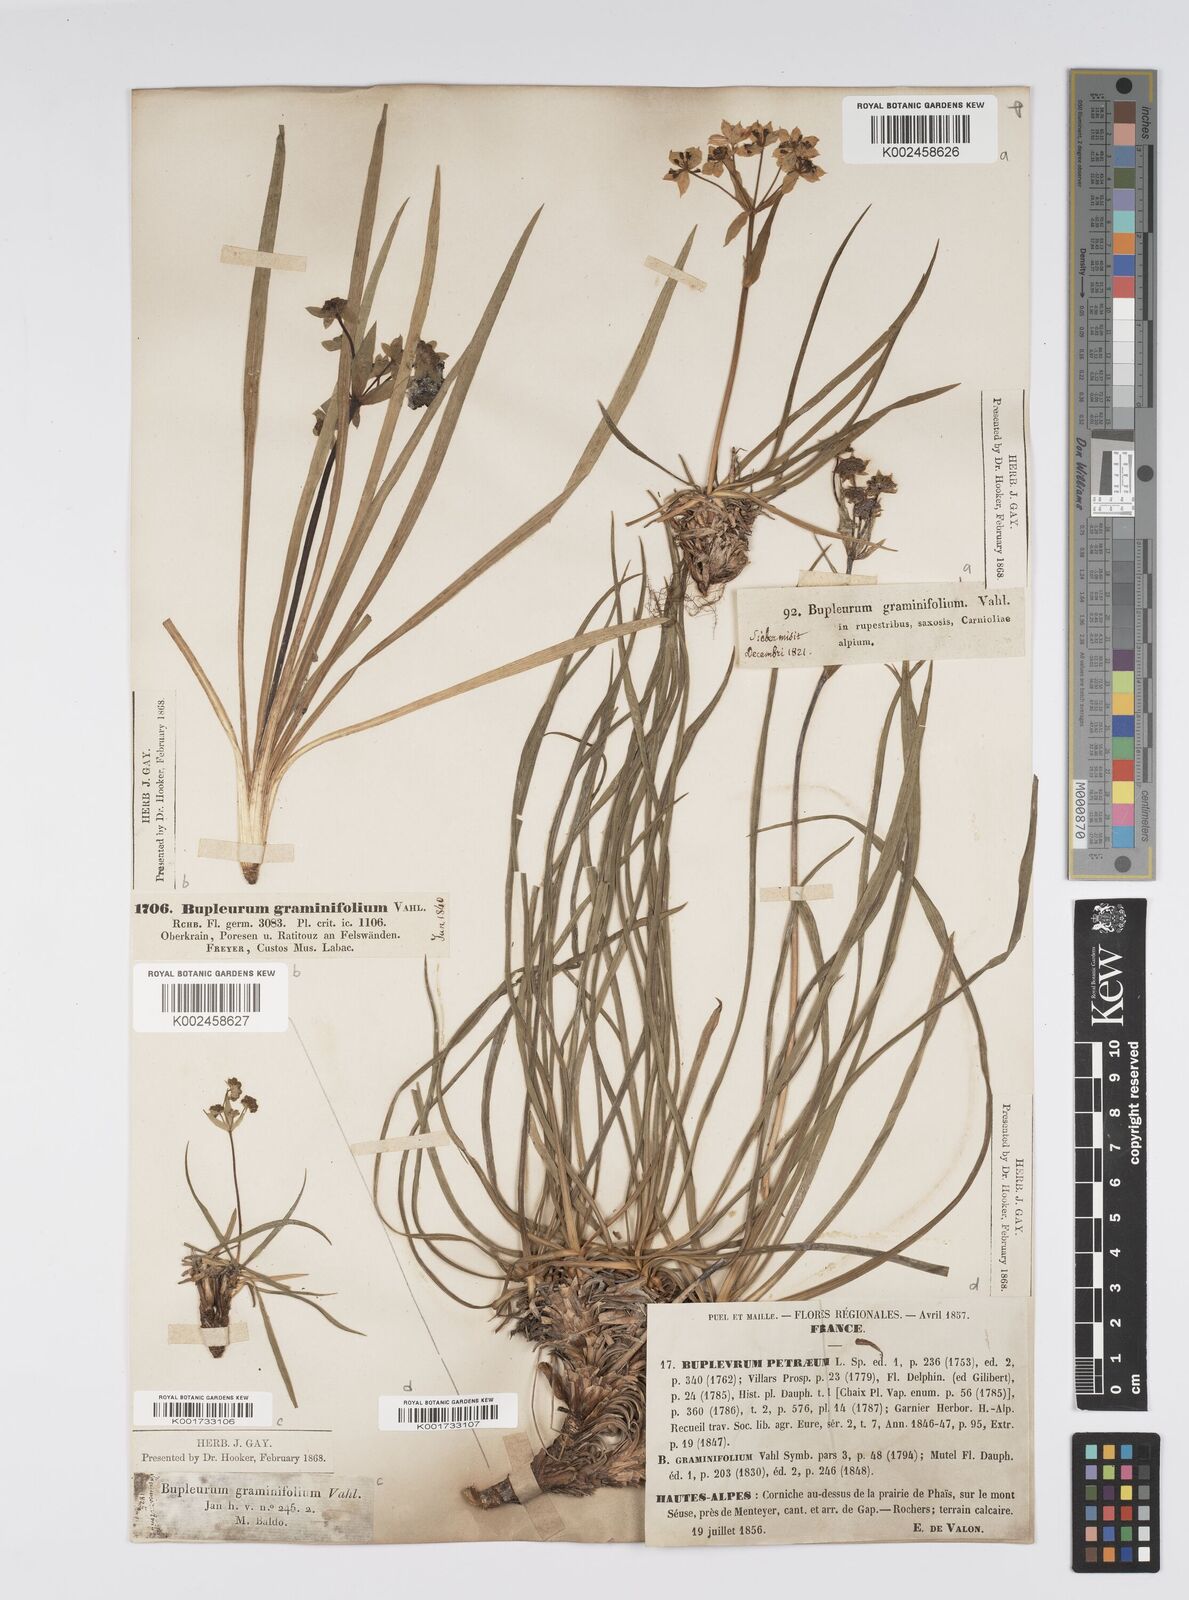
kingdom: Plantae
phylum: Tracheophyta
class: Magnoliopsida
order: Apiales
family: Apiaceae
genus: Bupleurum
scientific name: Bupleurum petraeum
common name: Rock hare's-ear
